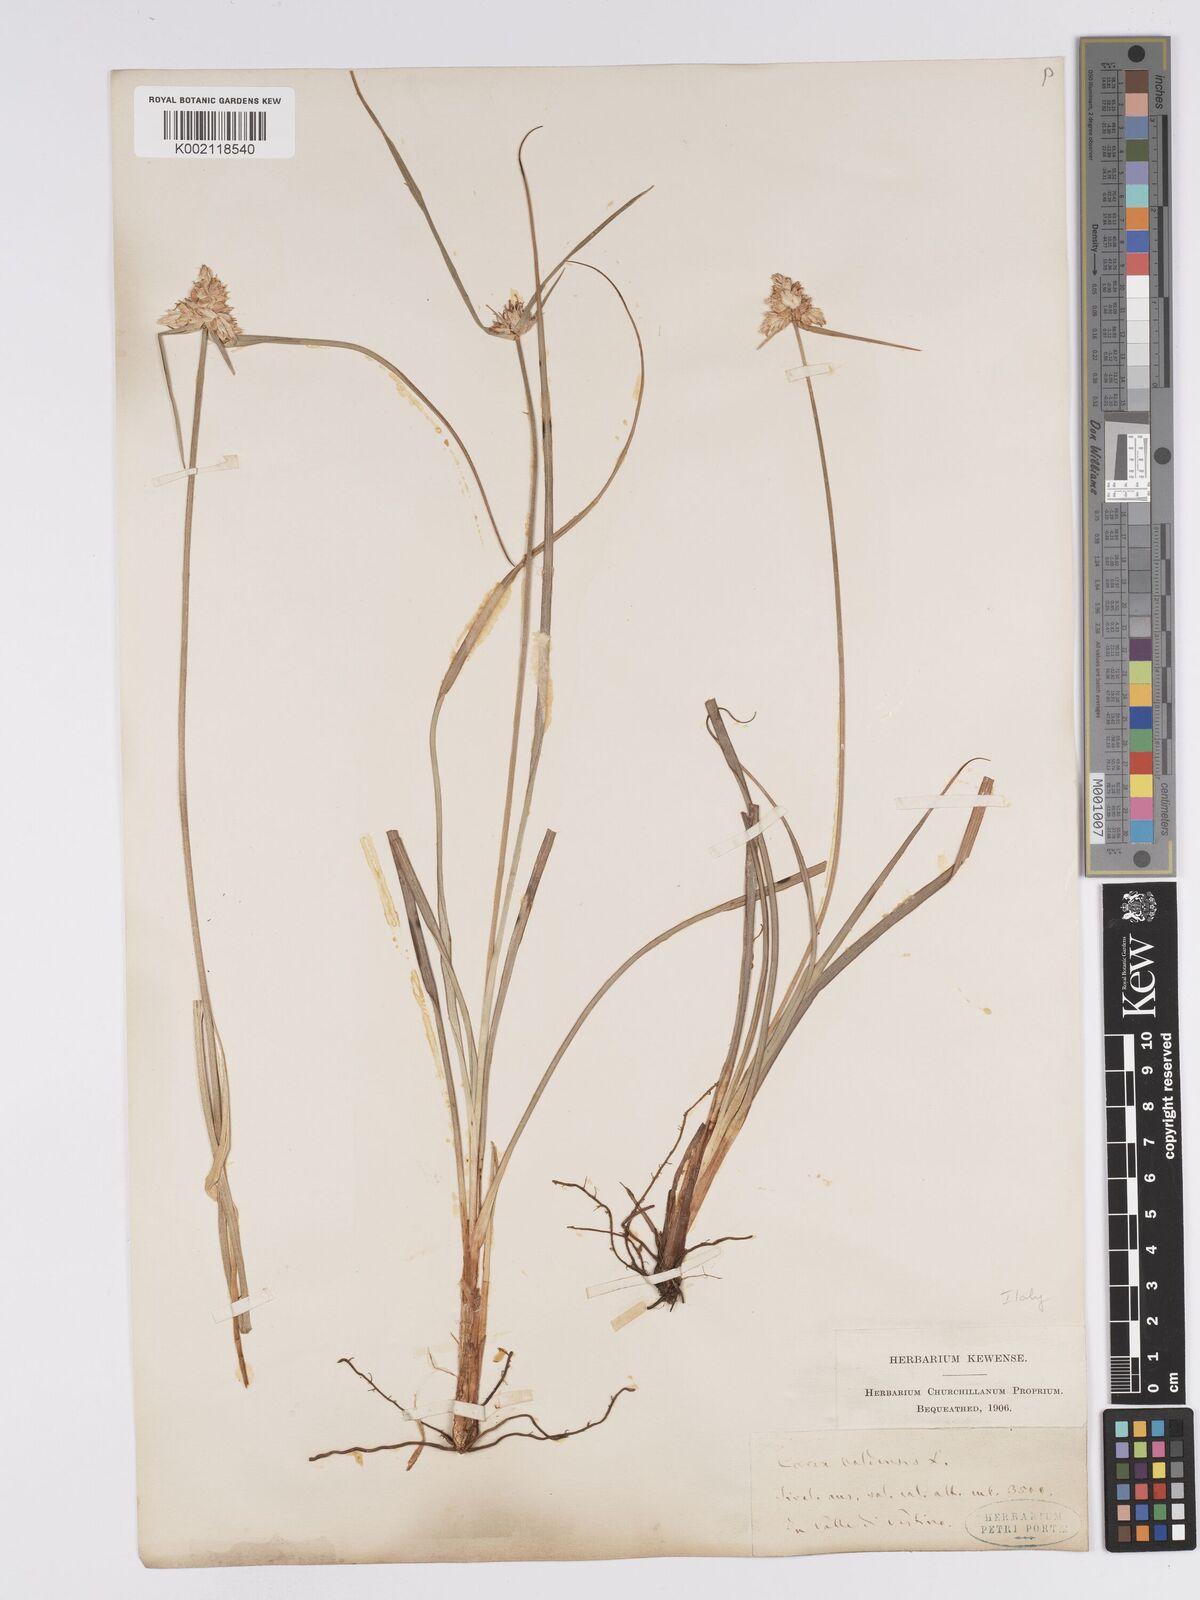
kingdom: Plantae
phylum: Tracheophyta
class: Liliopsida
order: Poales
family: Cyperaceae
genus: Carex
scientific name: Carex baldensis
